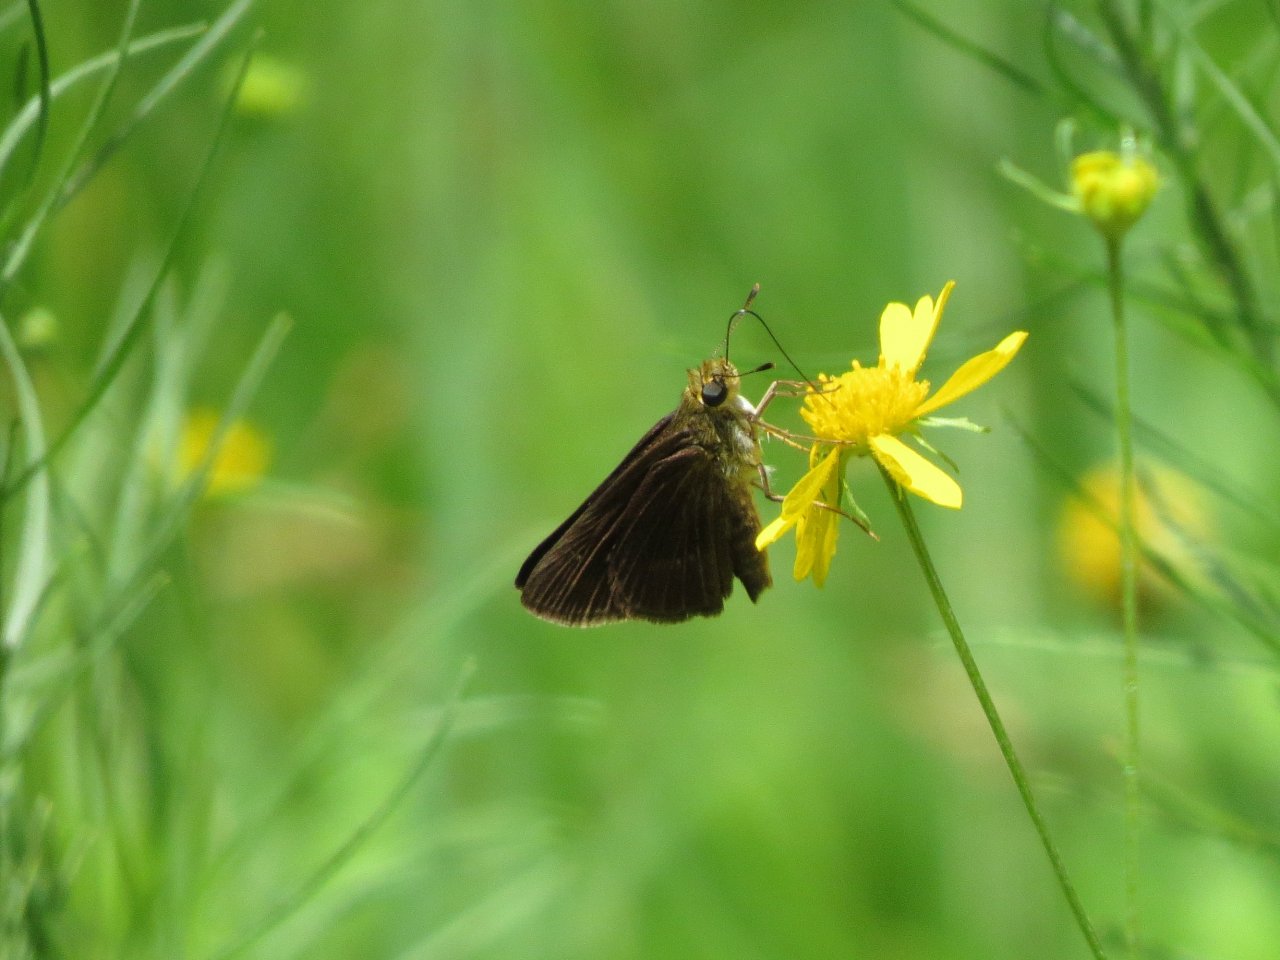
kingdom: Animalia
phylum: Arthropoda
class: Insecta
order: Lepidoptera
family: Hesperiidae
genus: Euphyes
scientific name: Euphyes vestris
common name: Dun Skipper
